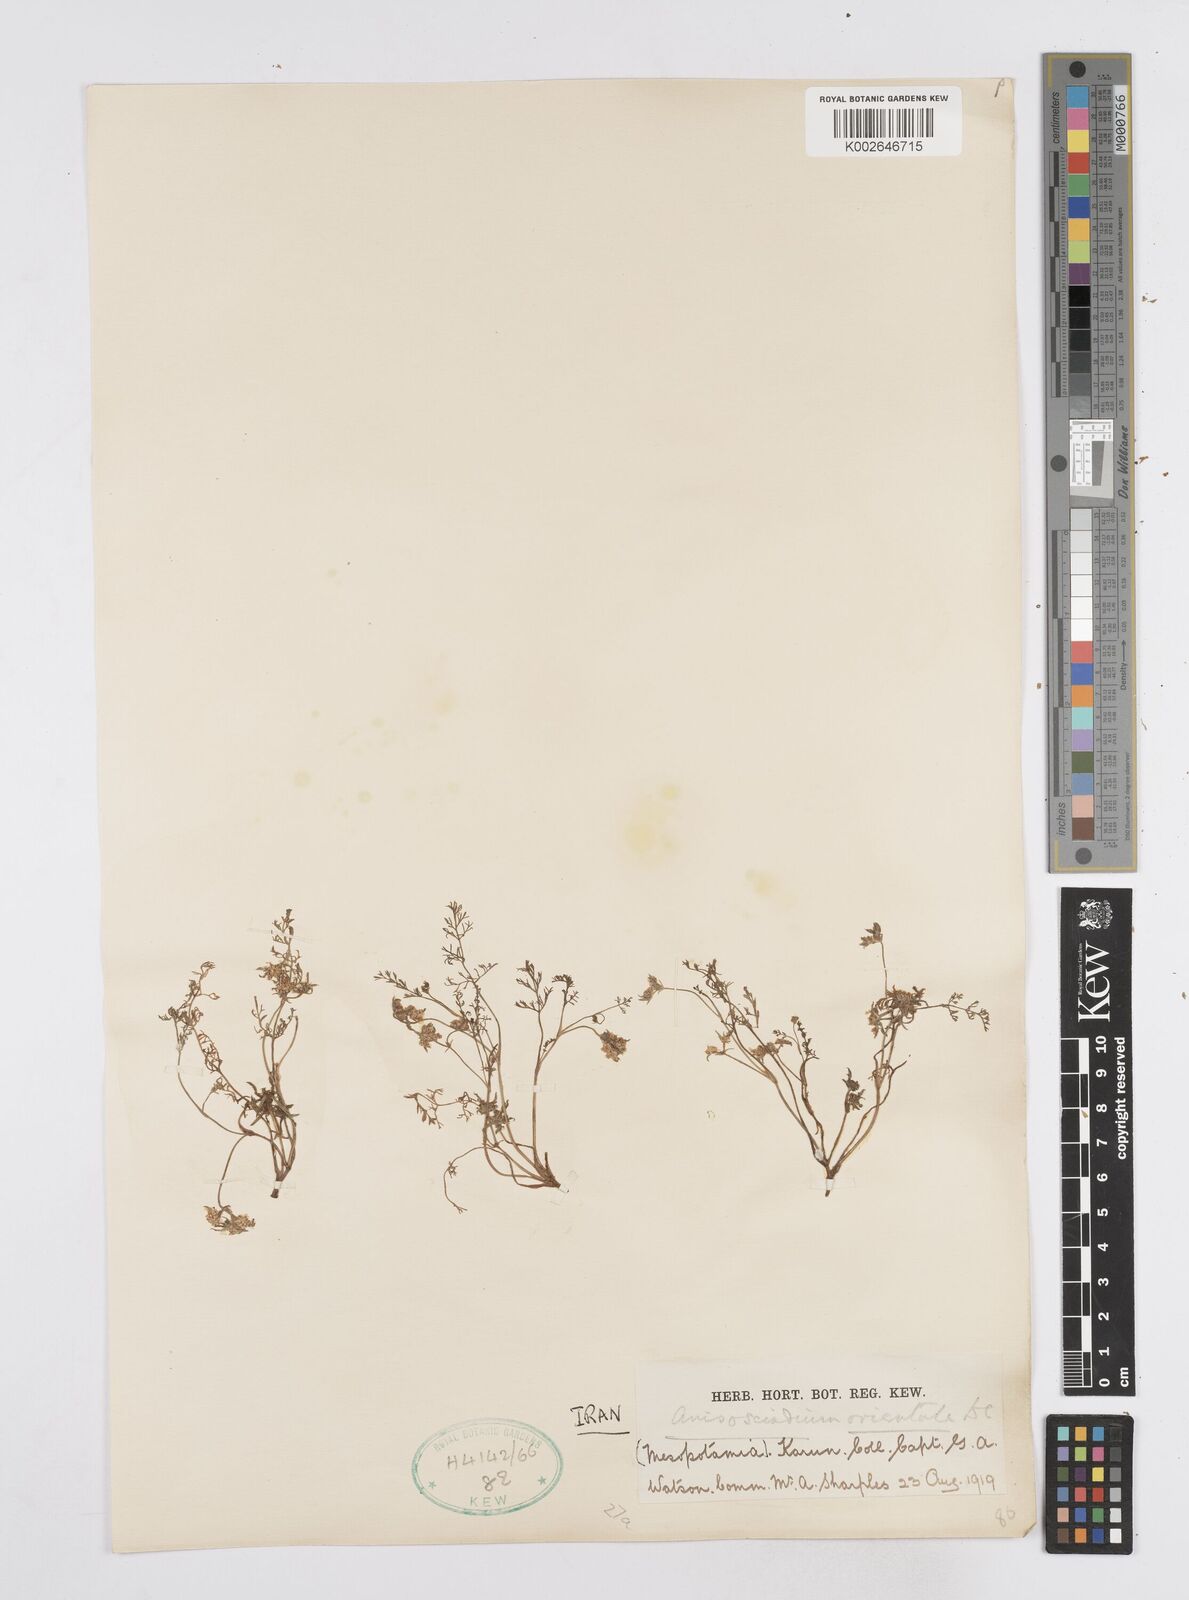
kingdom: Plantae
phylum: Tracheophyta
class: Magnoliopsida
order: Apiales
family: Apiaceae
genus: Anisosciadium
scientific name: Anisosciadium orientale
